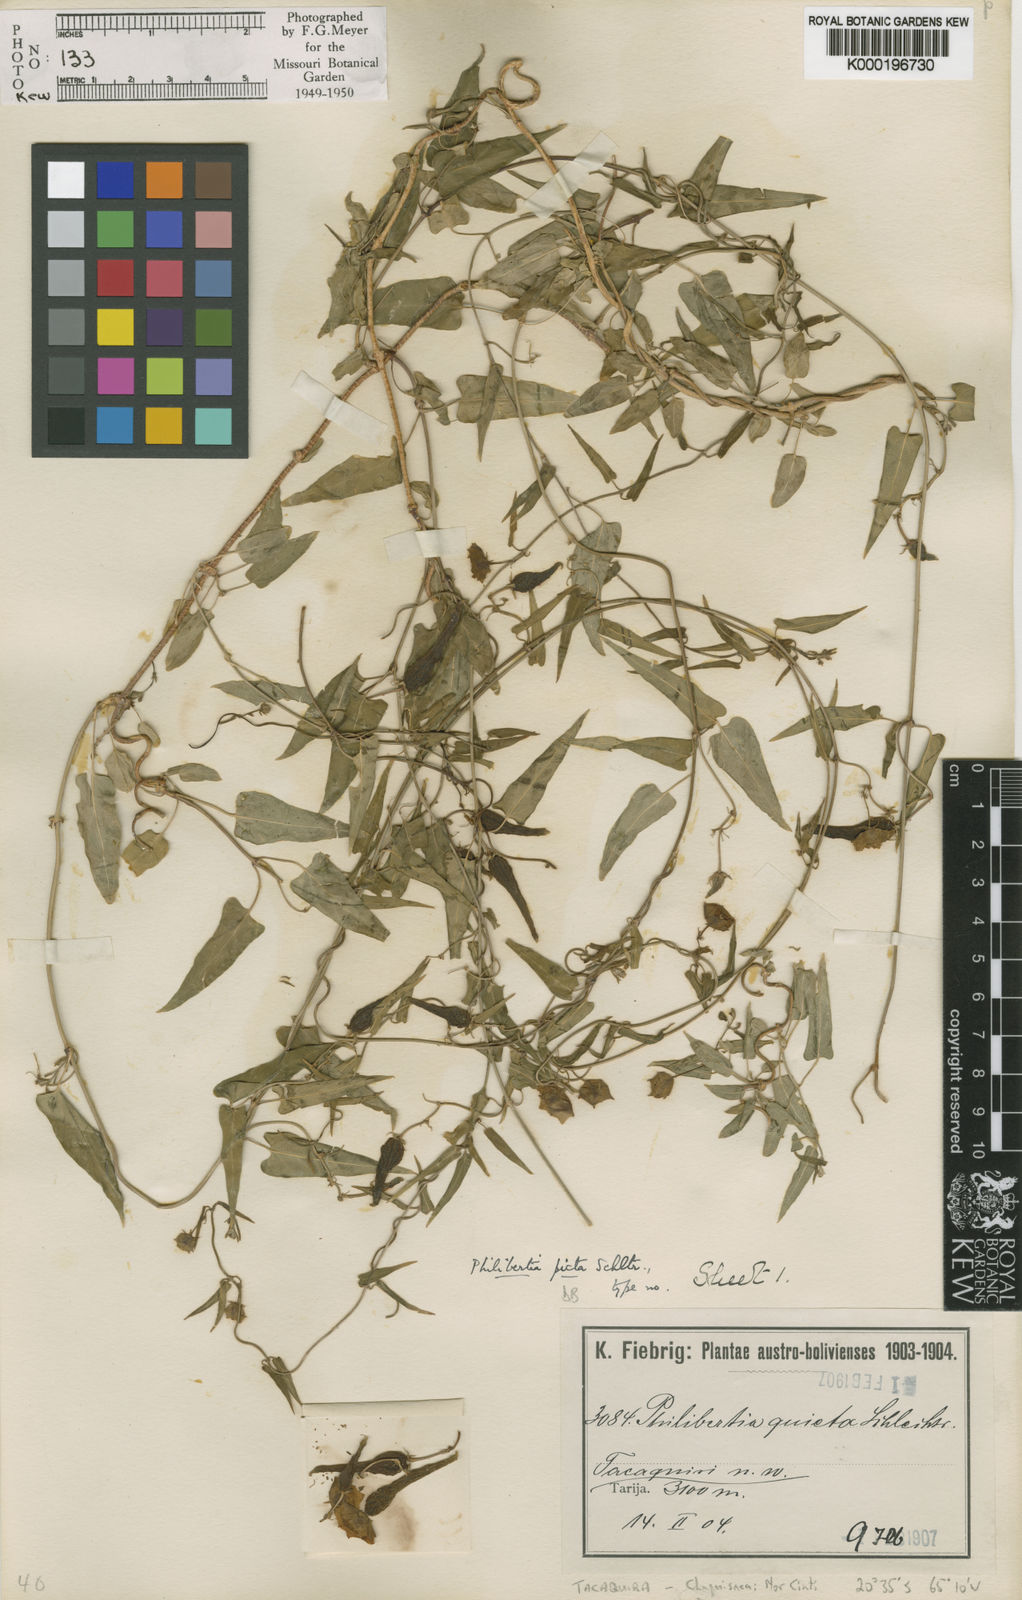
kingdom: Plantae
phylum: Tracheophyta
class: Magnoliopsida
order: Gentianales
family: Apocynaceae
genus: Philibertia
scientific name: Philibertia picta
